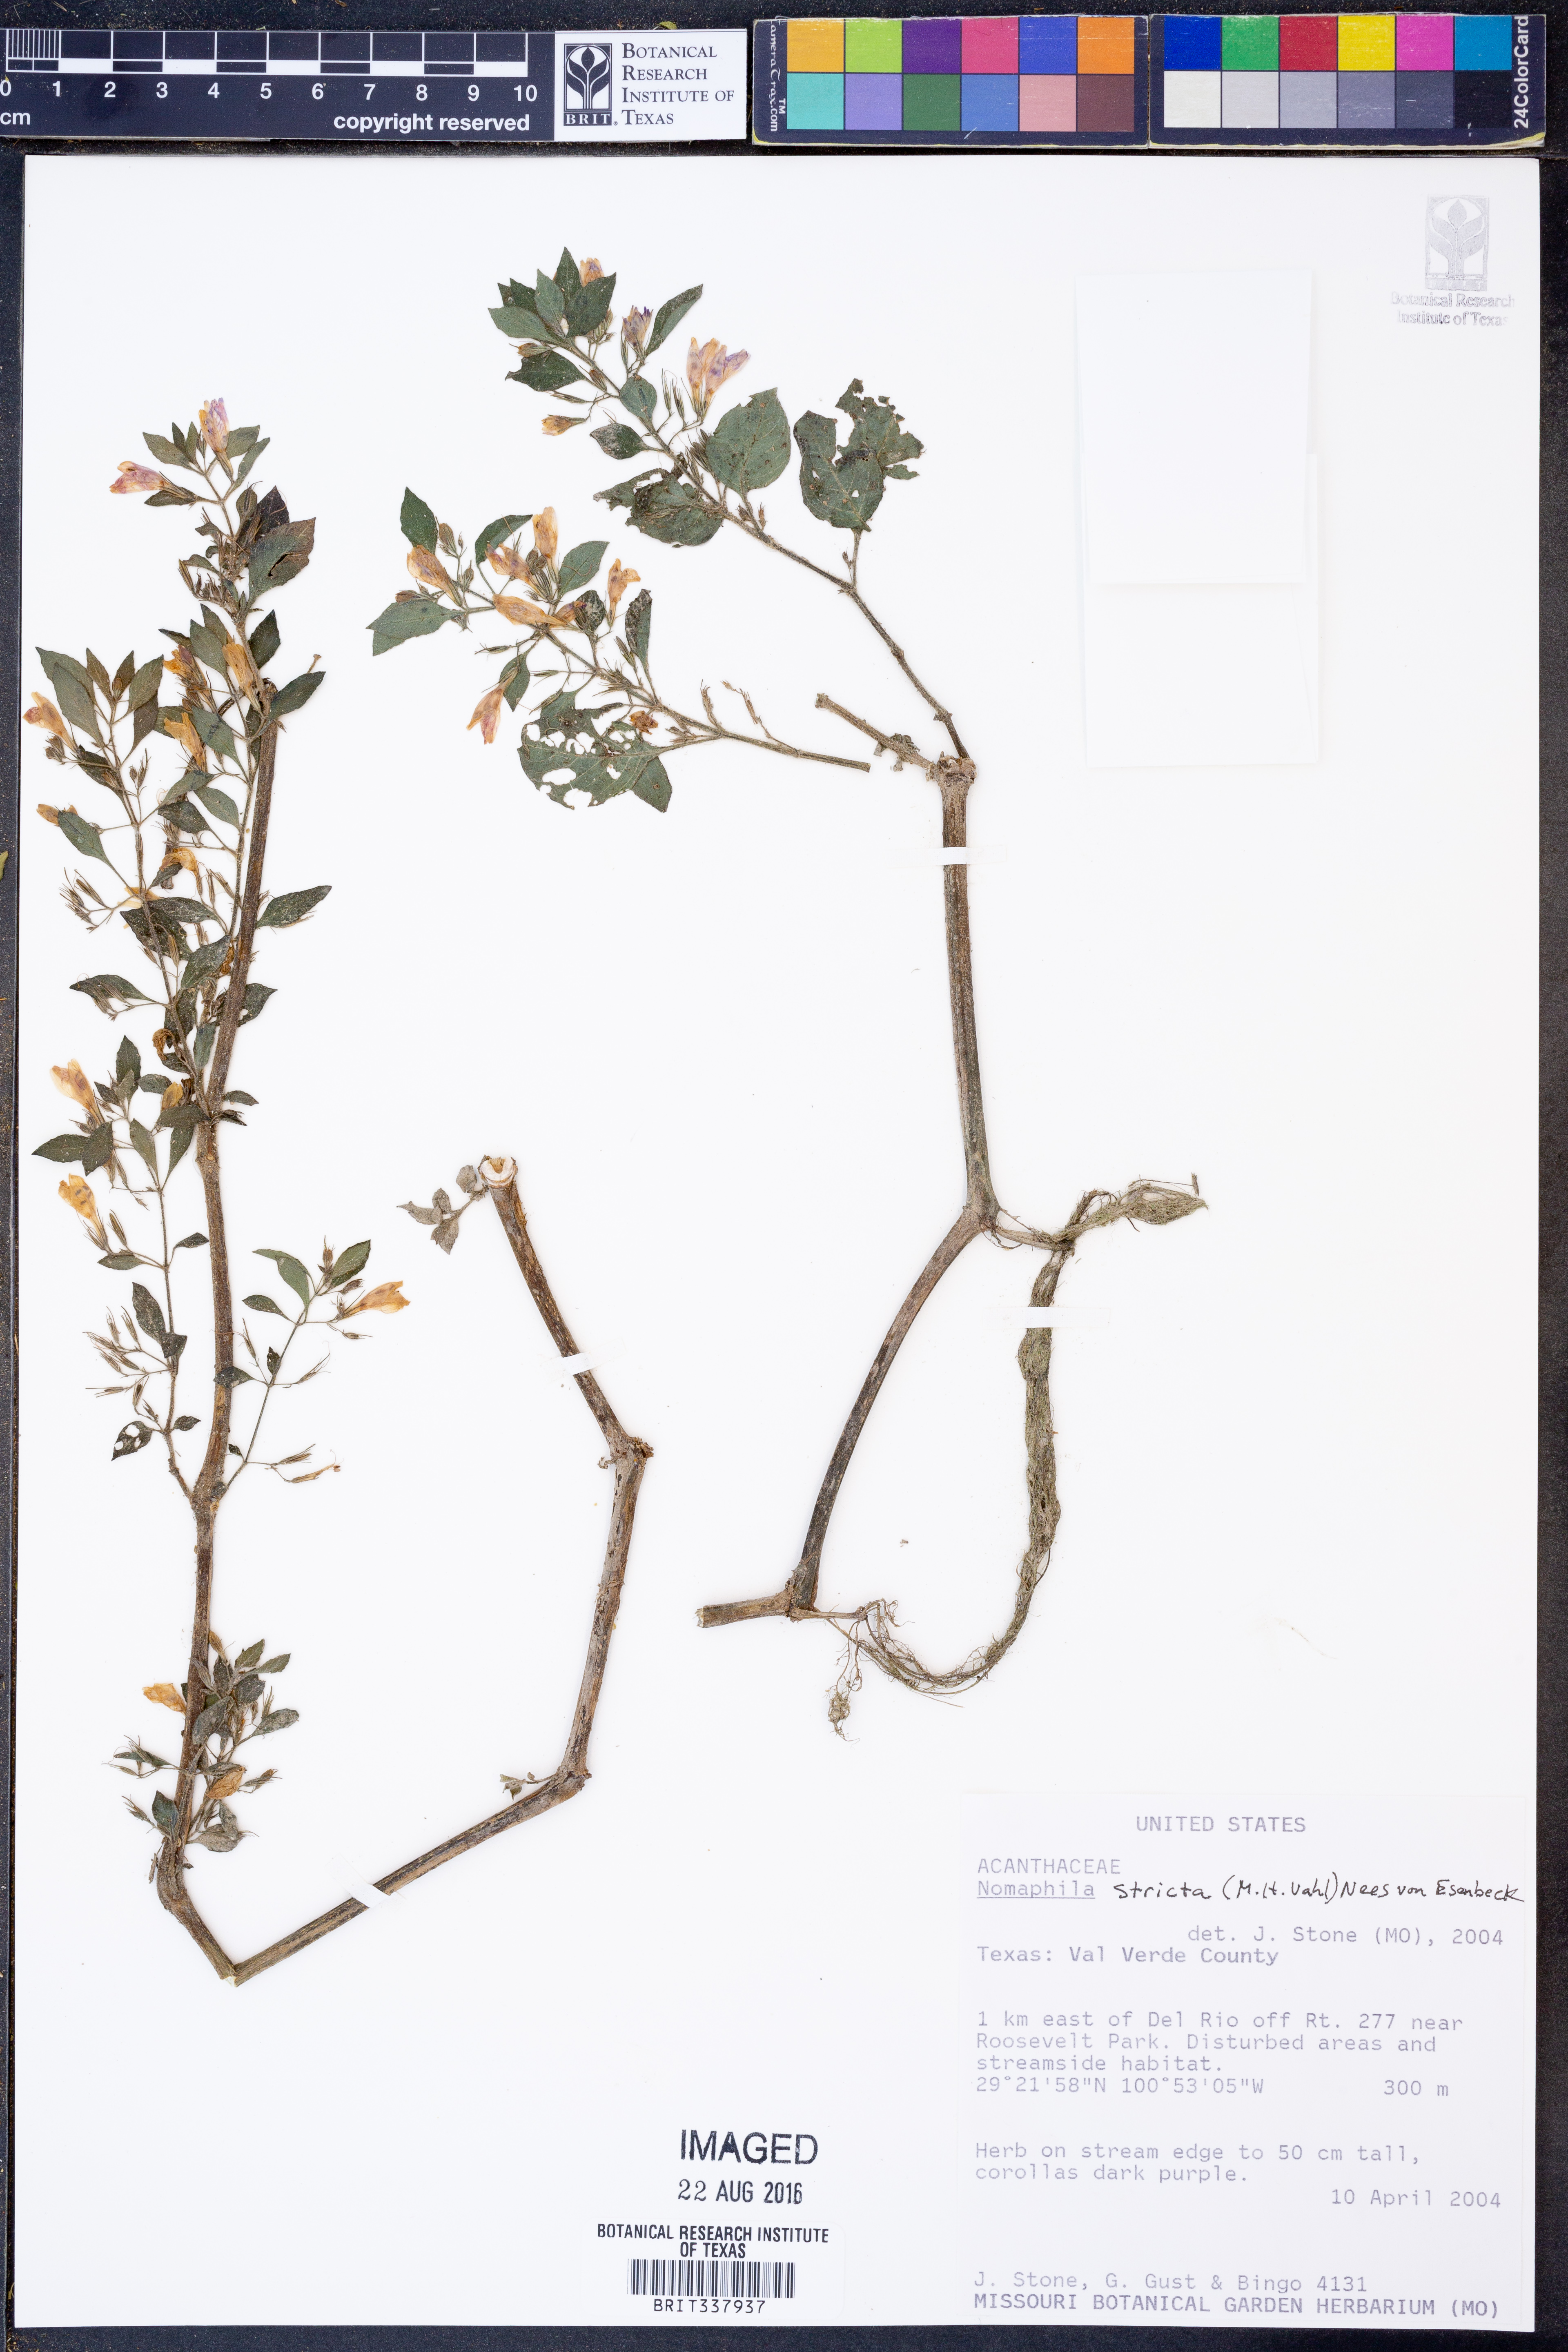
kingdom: Plantae
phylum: Tracheophyta
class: Magnoliopsida
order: Lamiales
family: Acanthaceae
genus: Hygrophila
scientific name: Hygrophila corymbosa
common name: Starhorn
